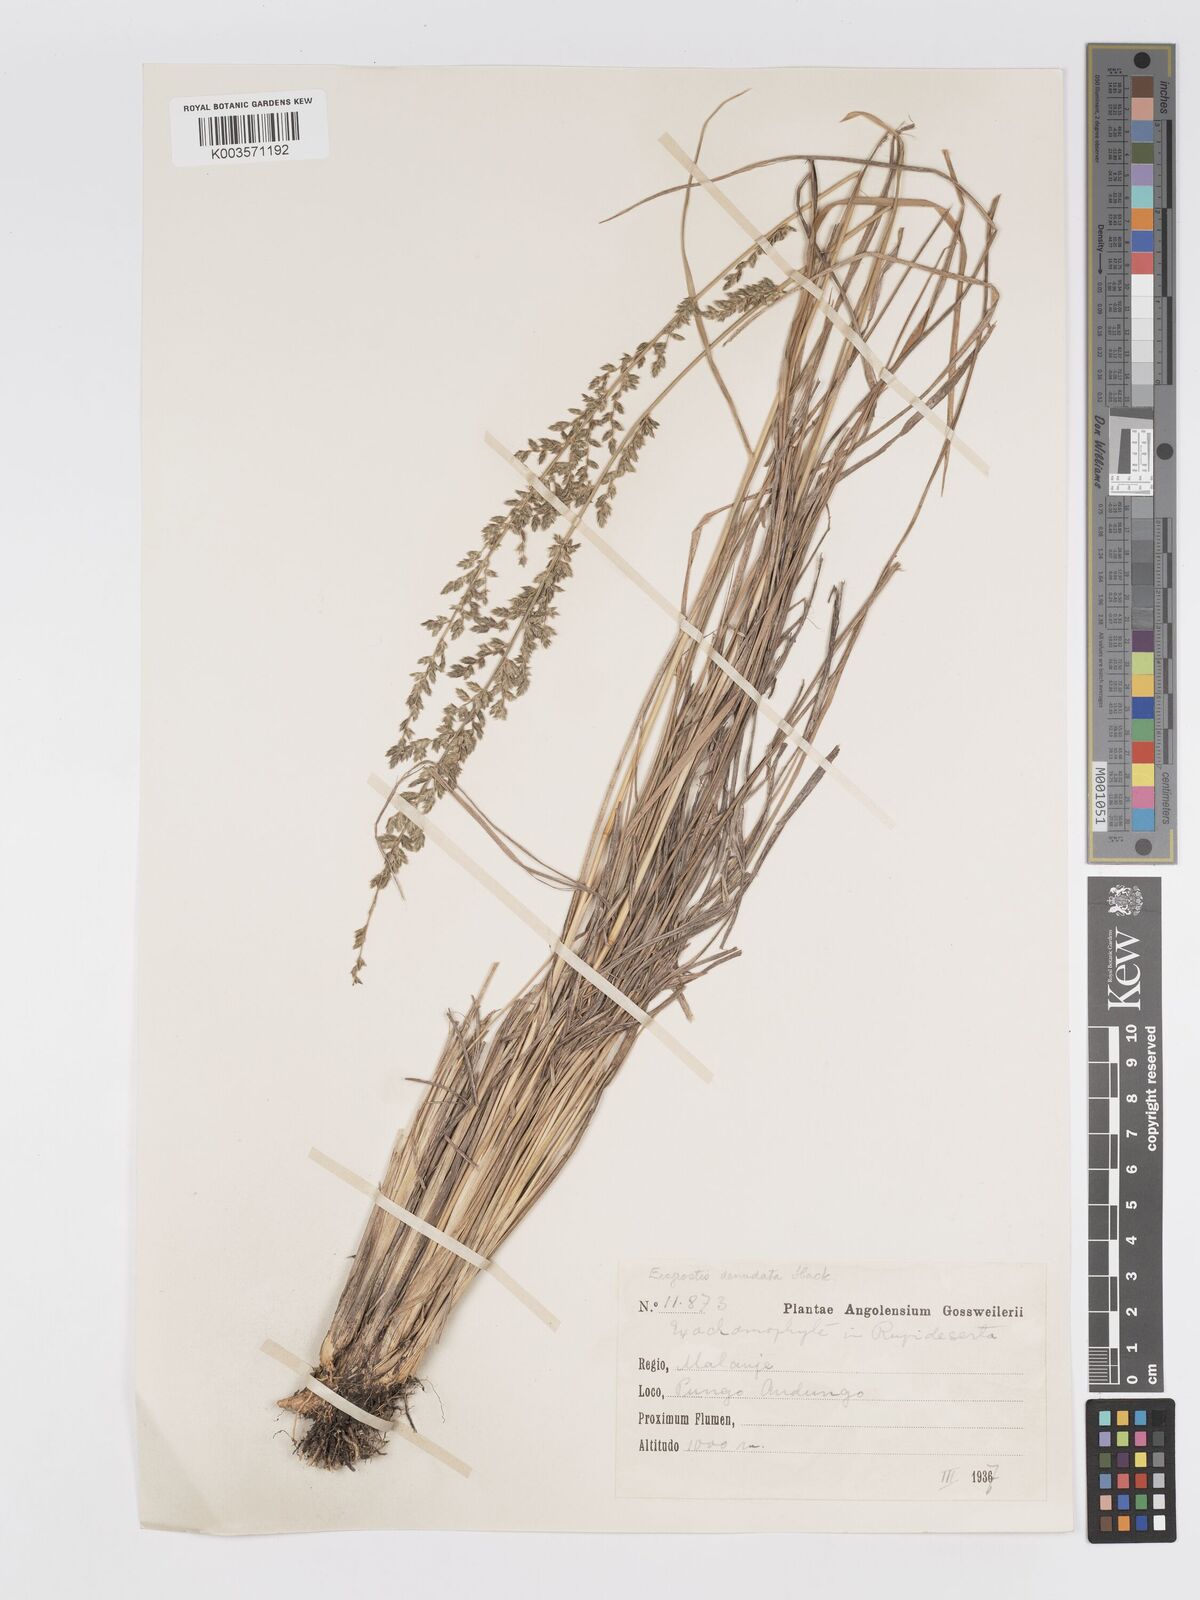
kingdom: Plantae
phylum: Tracheophyta
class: Liliopsida
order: Poales
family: Poaceae
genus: Eragrostis
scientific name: Eragrostis nindensis
